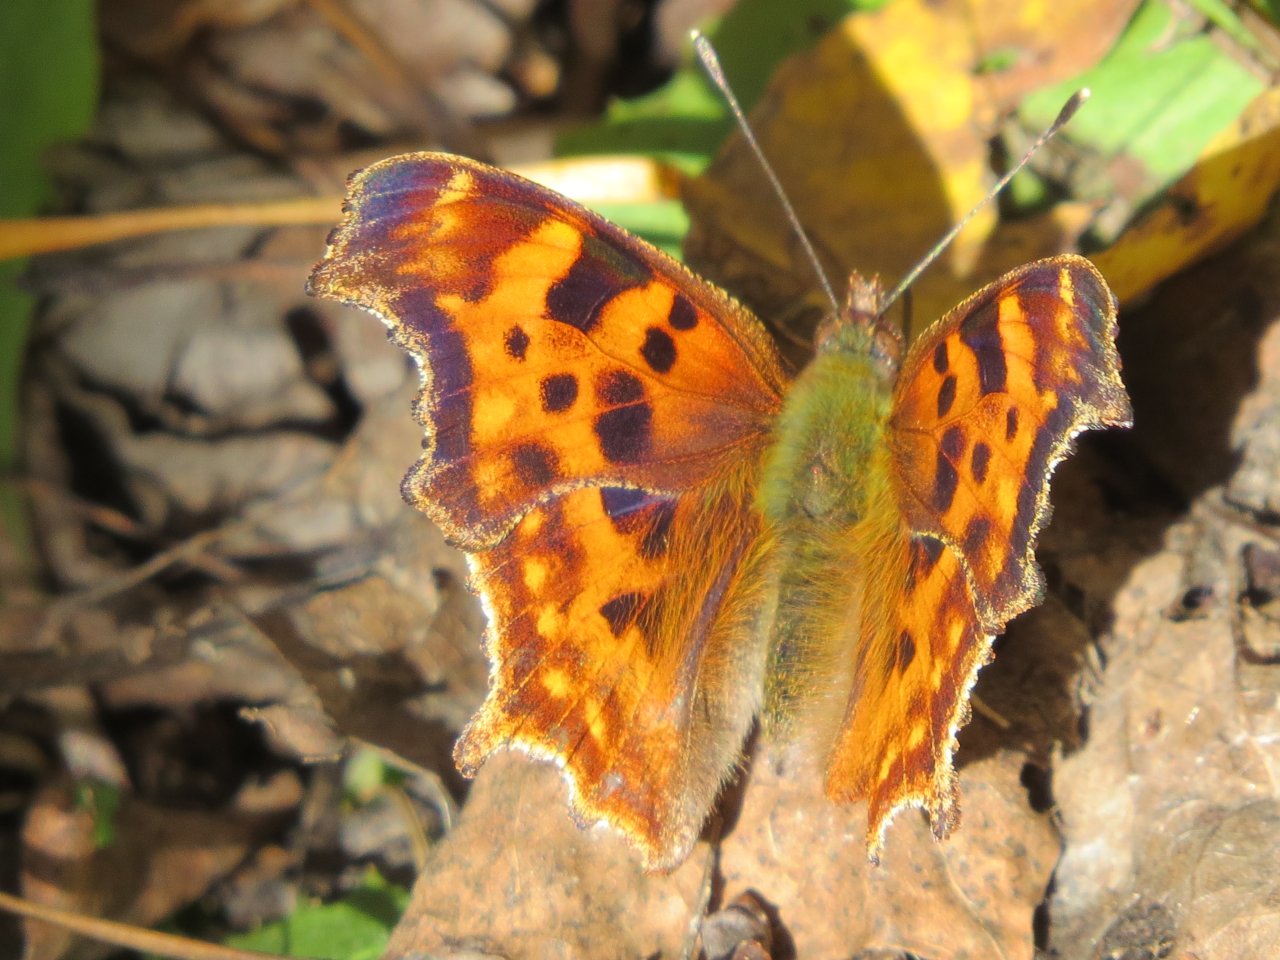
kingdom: Animalia
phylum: Arthropoda
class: Insecta
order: Lepidoptera
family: Nymphalidae
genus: Polygonia
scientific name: Polygonia satyrus
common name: Satyr Comma
